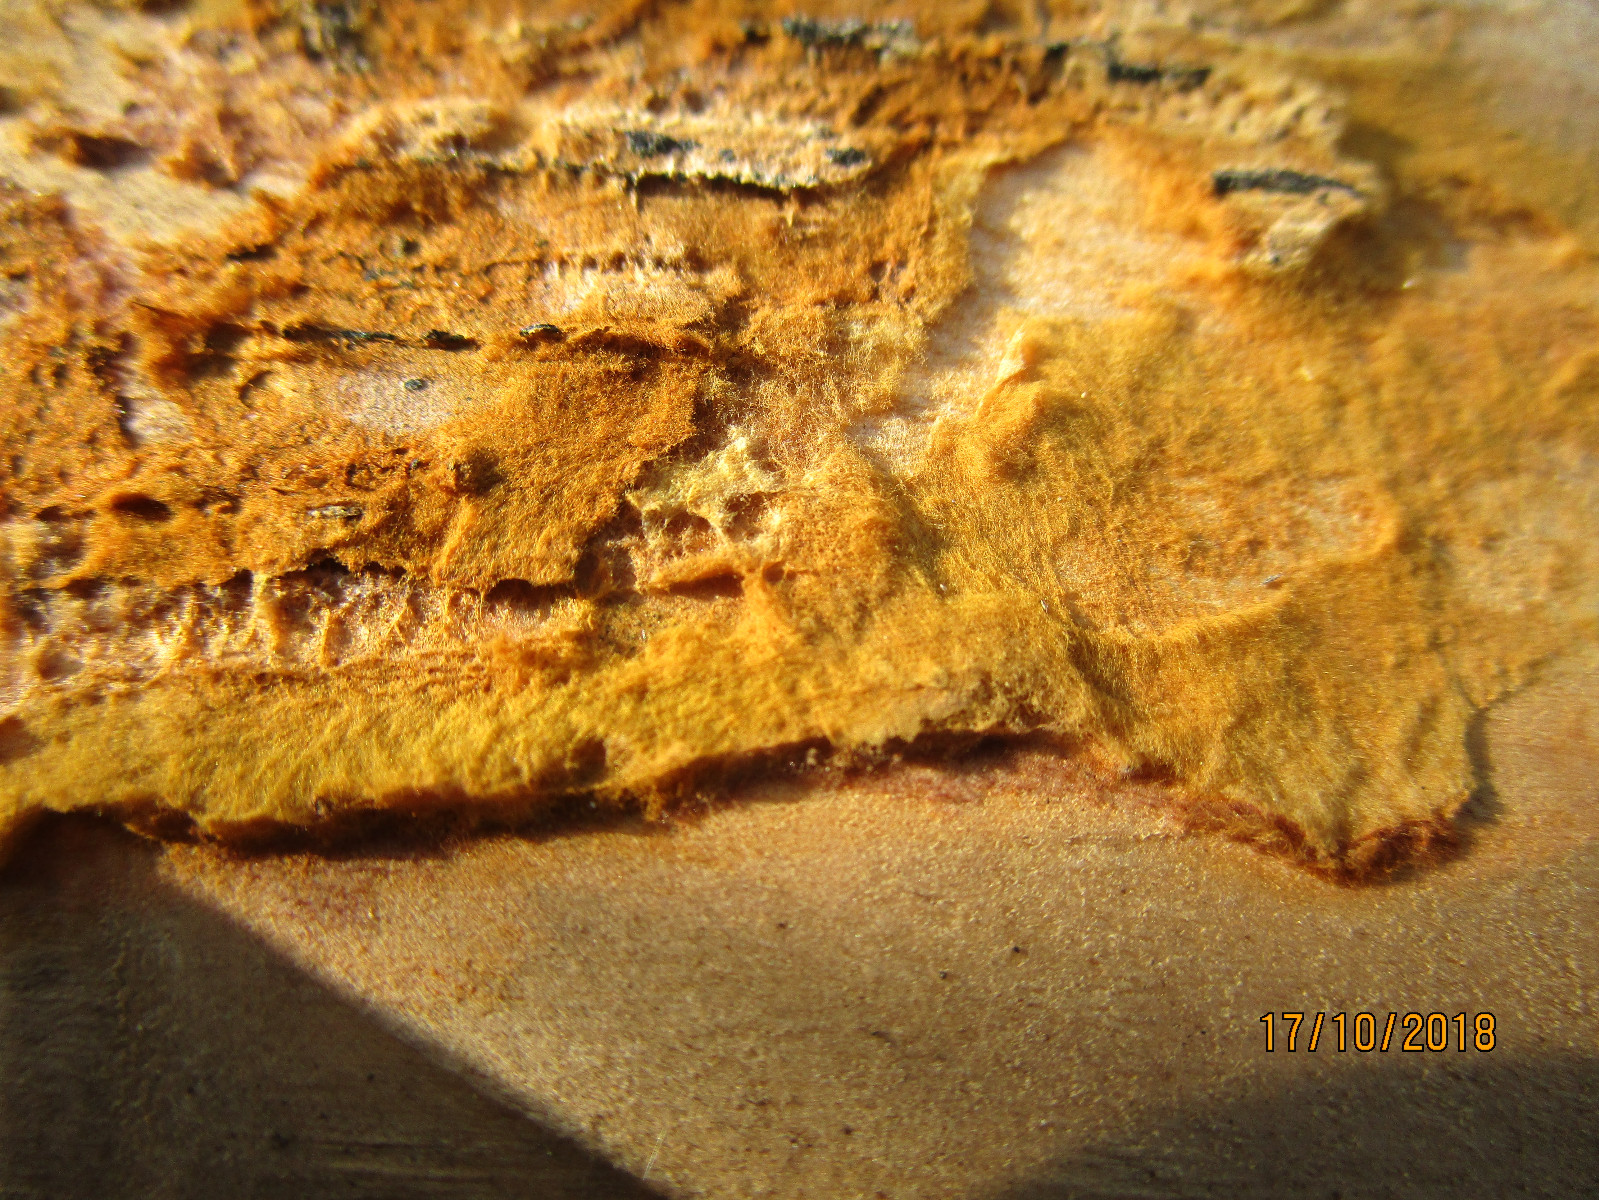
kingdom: Fungi
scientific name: Fungi
